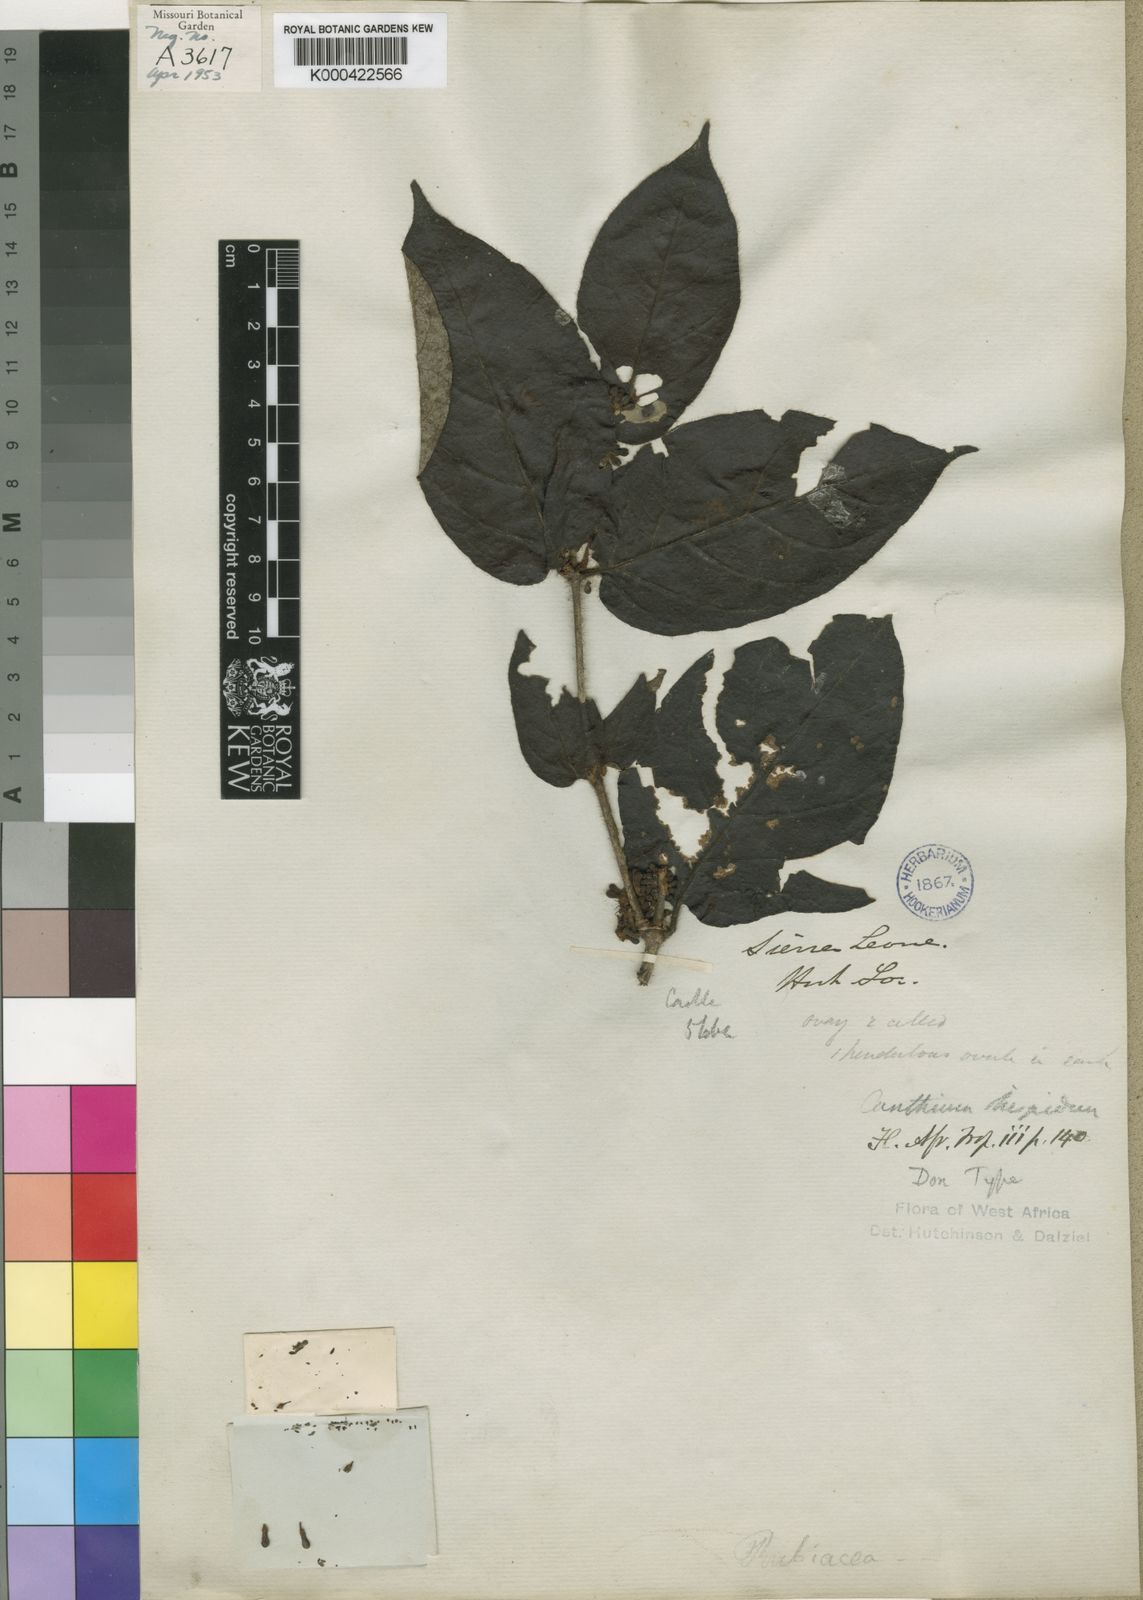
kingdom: Plantae
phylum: Tracheophyta
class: Magnoliopsida
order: Gentianales
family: Rubiaceae
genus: Keetia
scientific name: Keetia hispida
